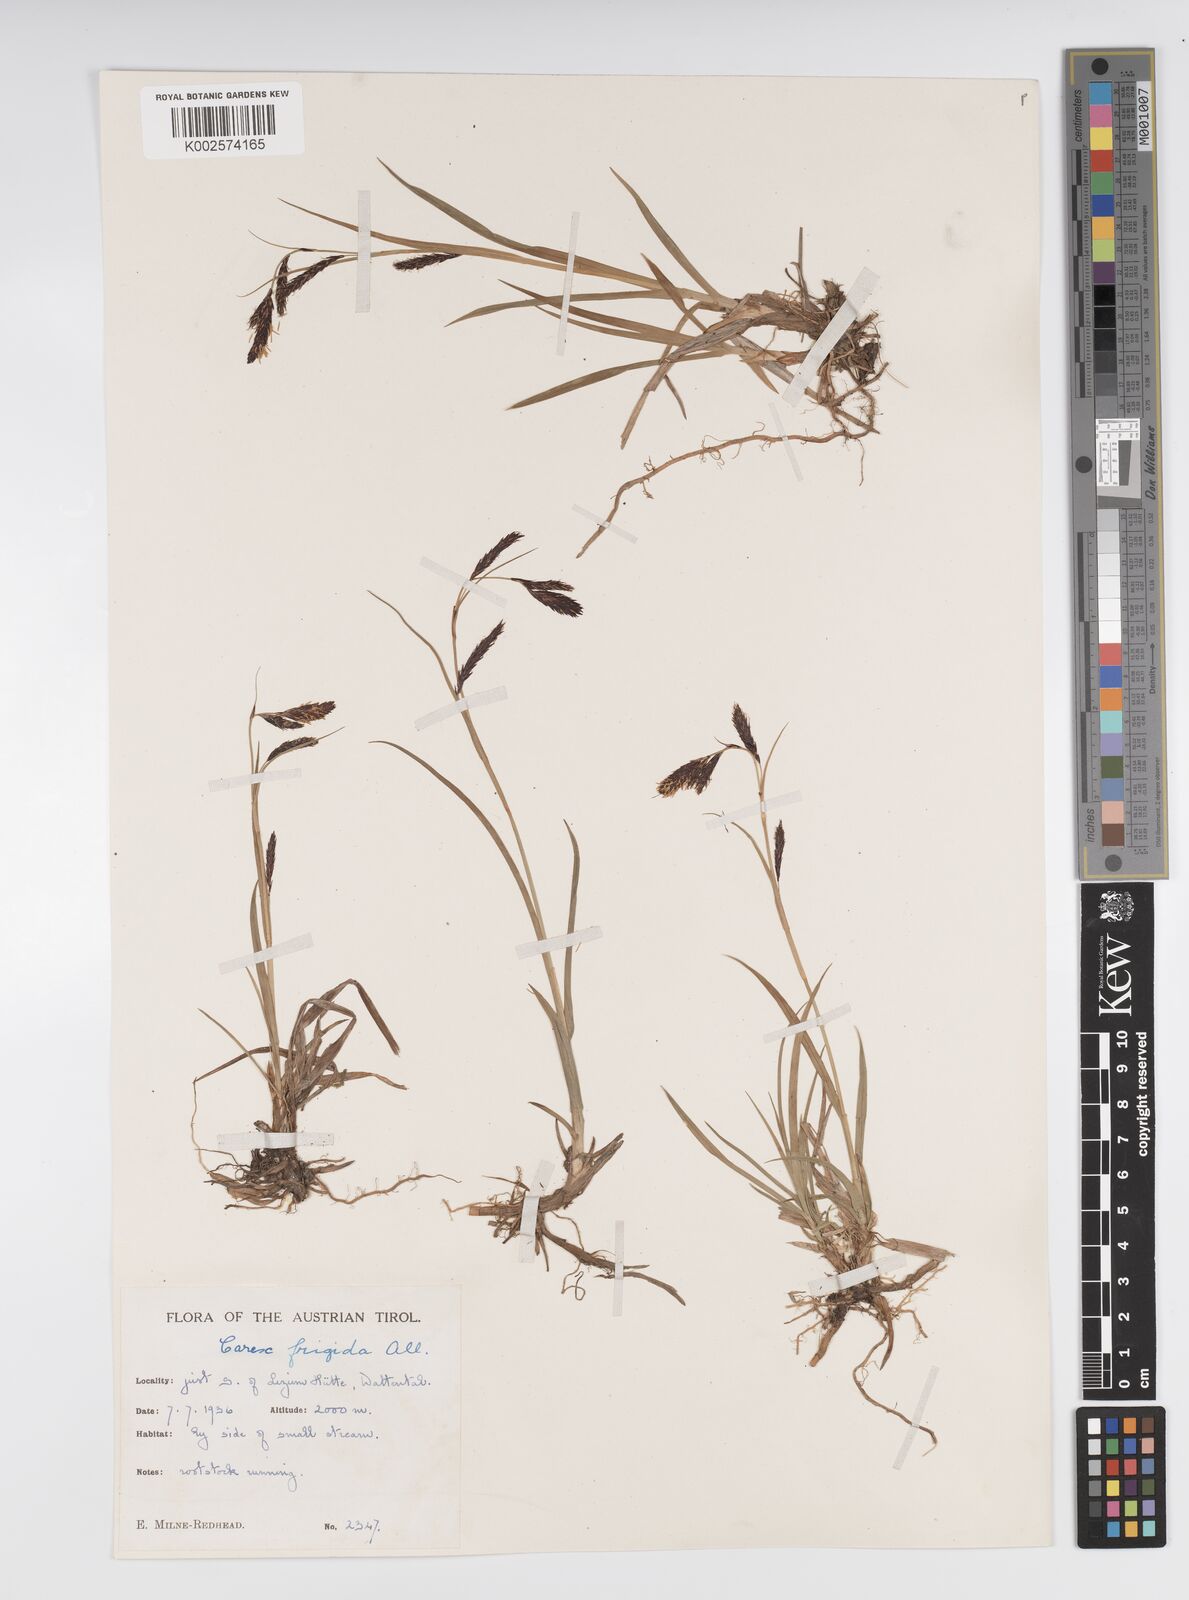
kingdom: Plantae
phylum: Tracheophyta
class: Liliopsida
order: Poales
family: Cyperaceae
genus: Carex
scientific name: Carex frigida
